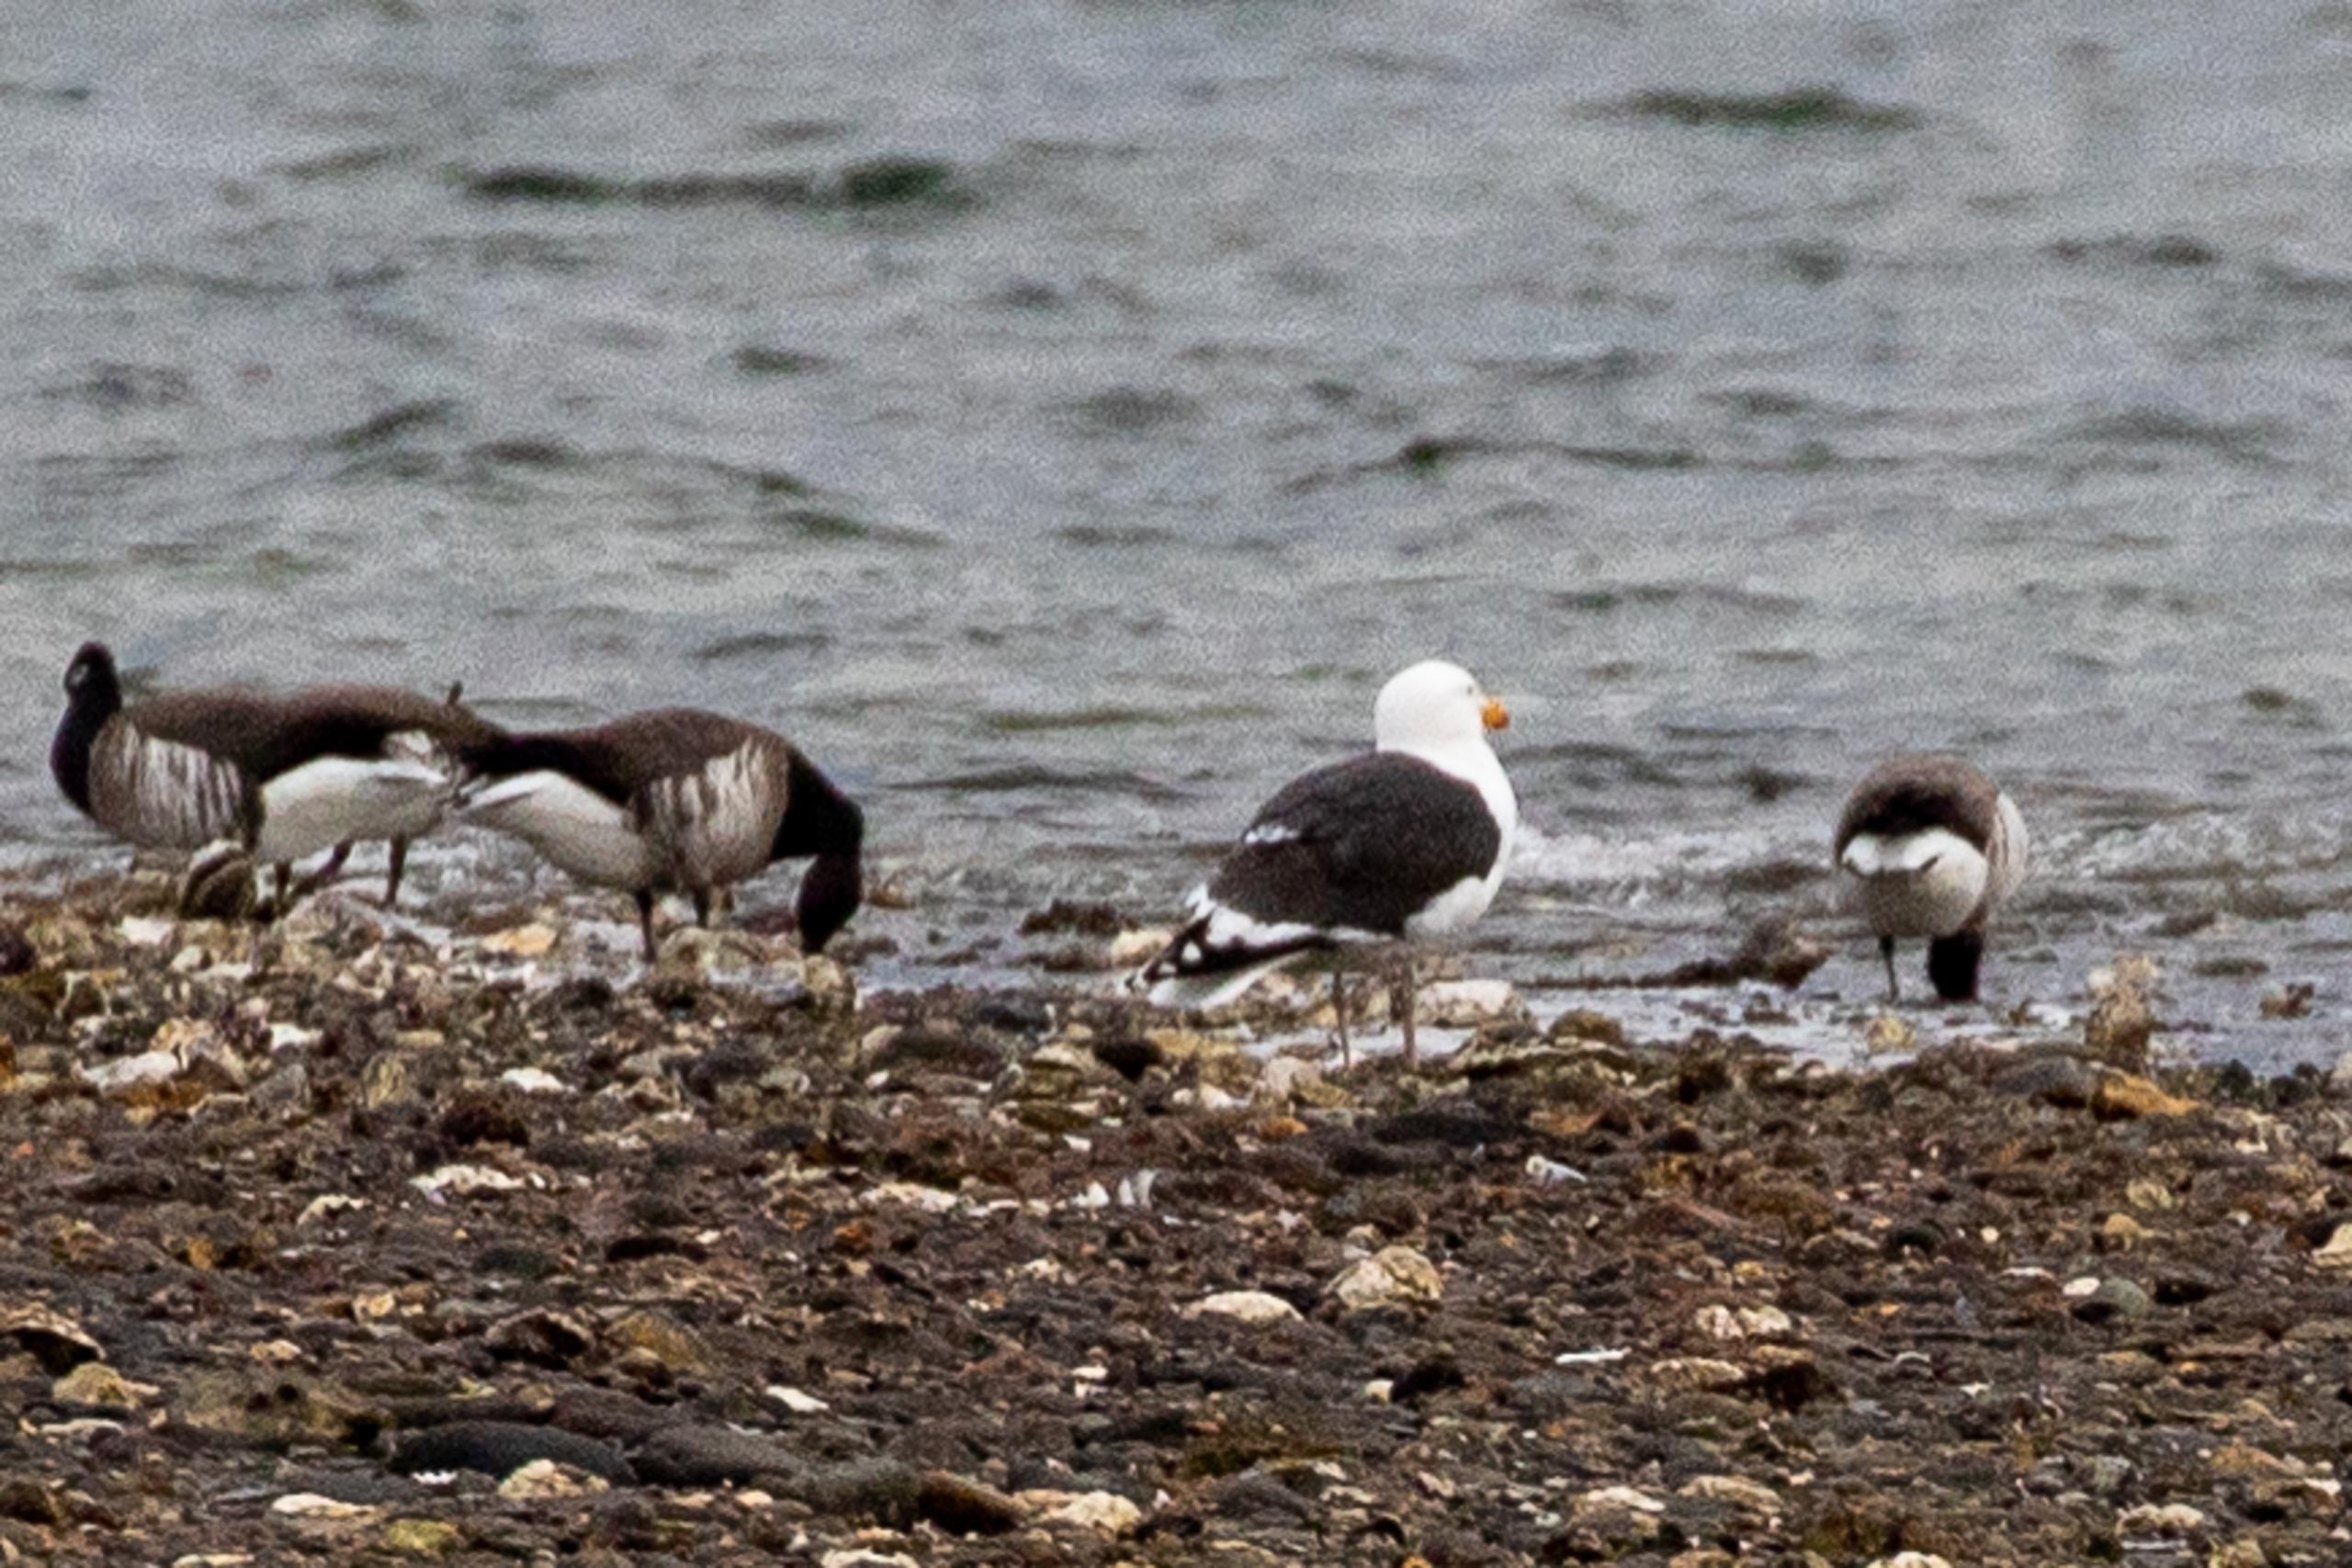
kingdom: Animalia
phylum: Chordata
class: Aves
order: Charadriiformes
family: Laridae
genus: Larus
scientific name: Larus marinus
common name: Svartbag
